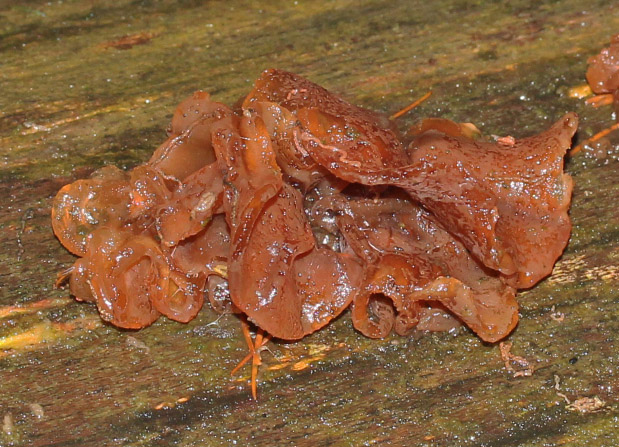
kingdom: Fungi
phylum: Basidiomycota
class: Tremellomycetes
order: Tremellales
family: Tremellaceae
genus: Phaeotremella
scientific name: Phaeotremella frondosa
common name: kæmpe-bævresvamp
